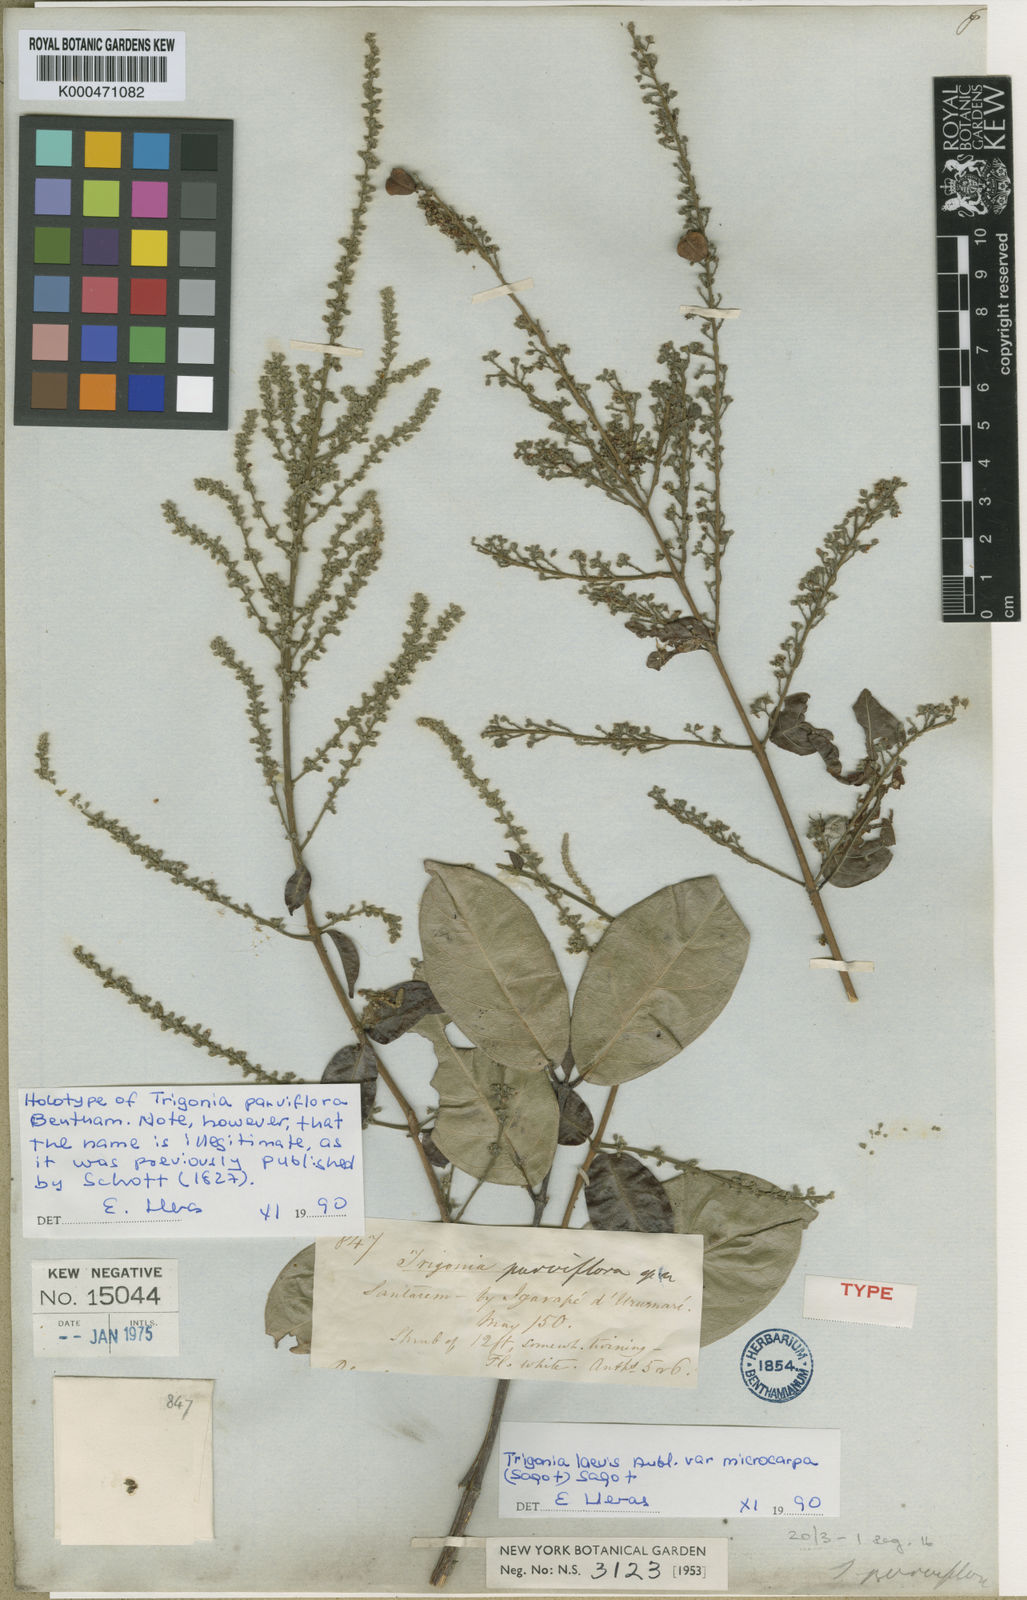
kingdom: Plantae
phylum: Tracheophyta
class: Magnoliopsida
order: Malpighiales
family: Trigoniaceae
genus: Trigonia
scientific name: Trigonia microcarpa
